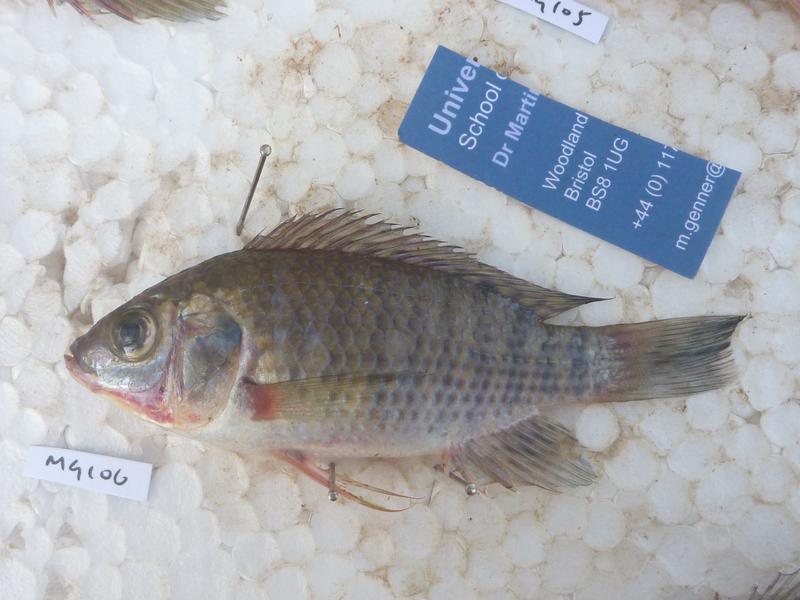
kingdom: Animalia
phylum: Chordata
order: Perciformes
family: Cichlidae
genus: Oreochromis
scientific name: Oreochromis leucostictus
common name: Blue spotted tilapia
